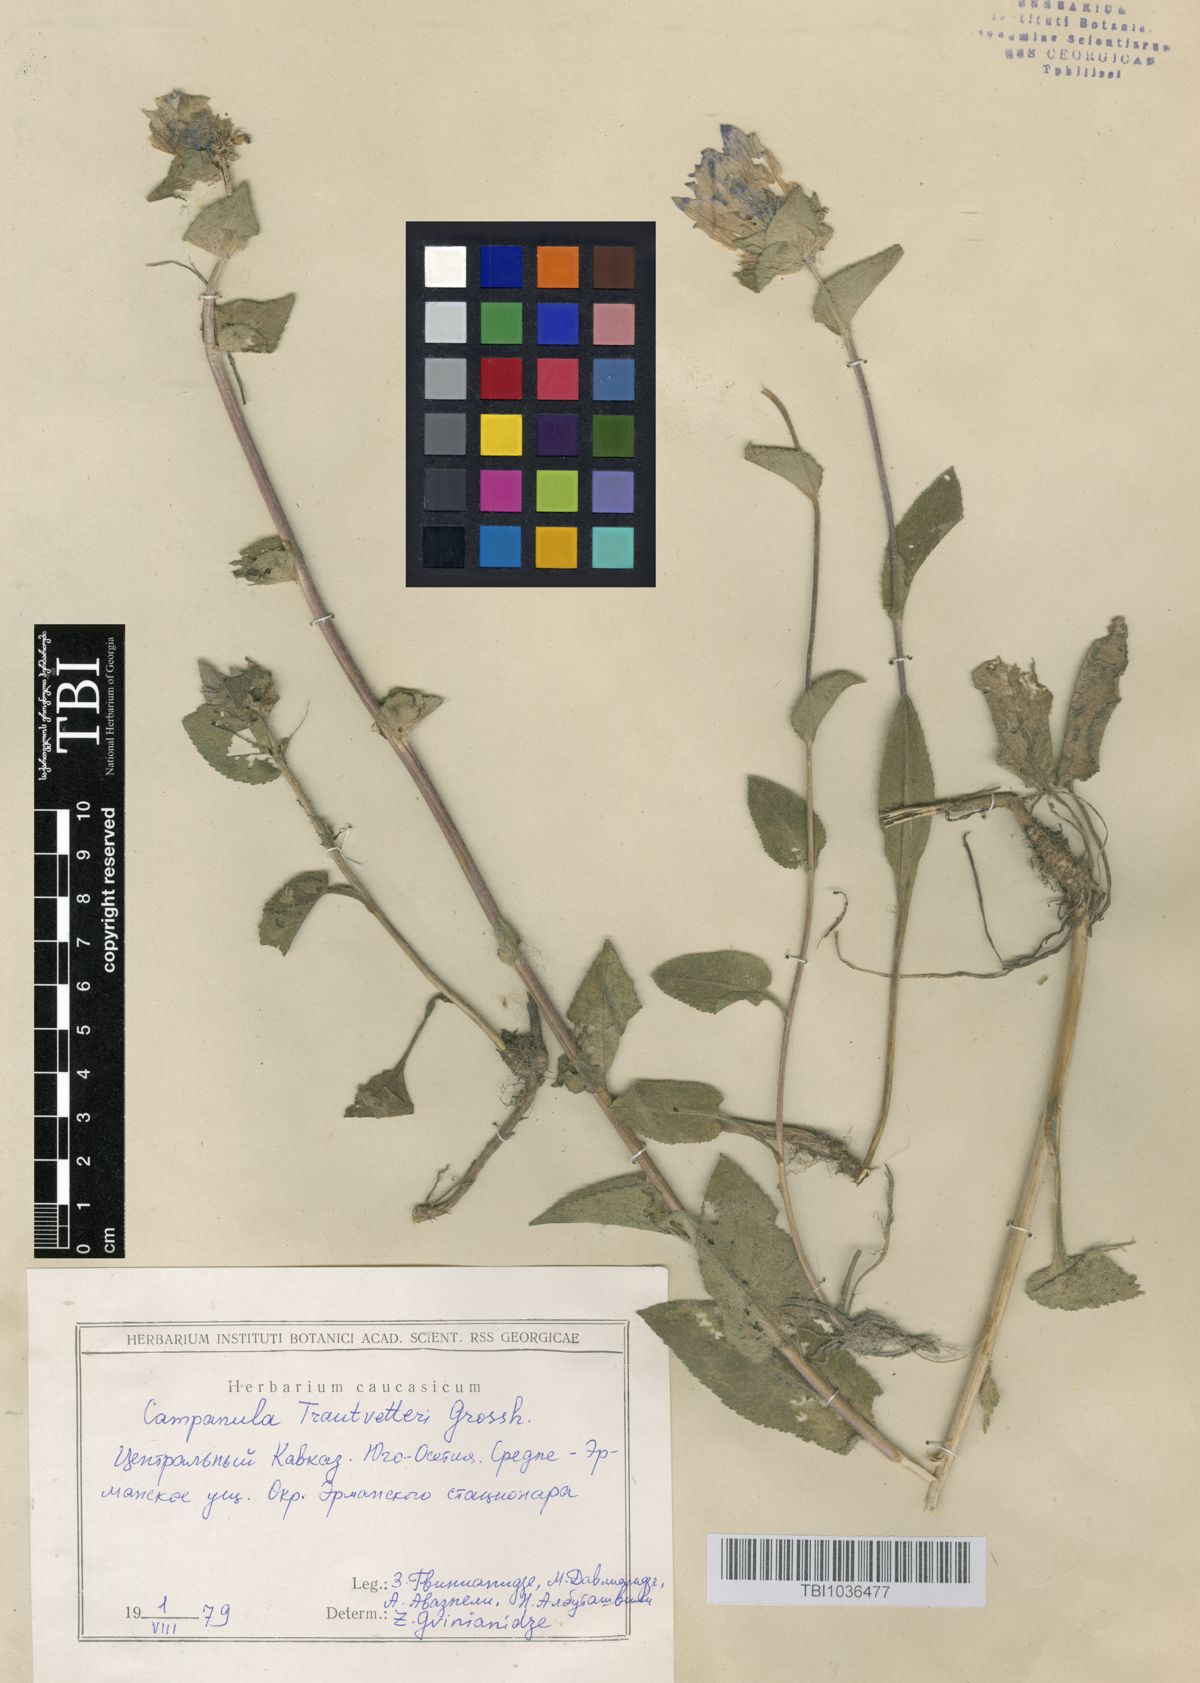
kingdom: Plantae
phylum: Tracheophyta
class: Magnoliopsida
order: Asterales
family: Campanulaceae
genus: Campanula
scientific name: Campanula glomerata
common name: Clustered bellflower
